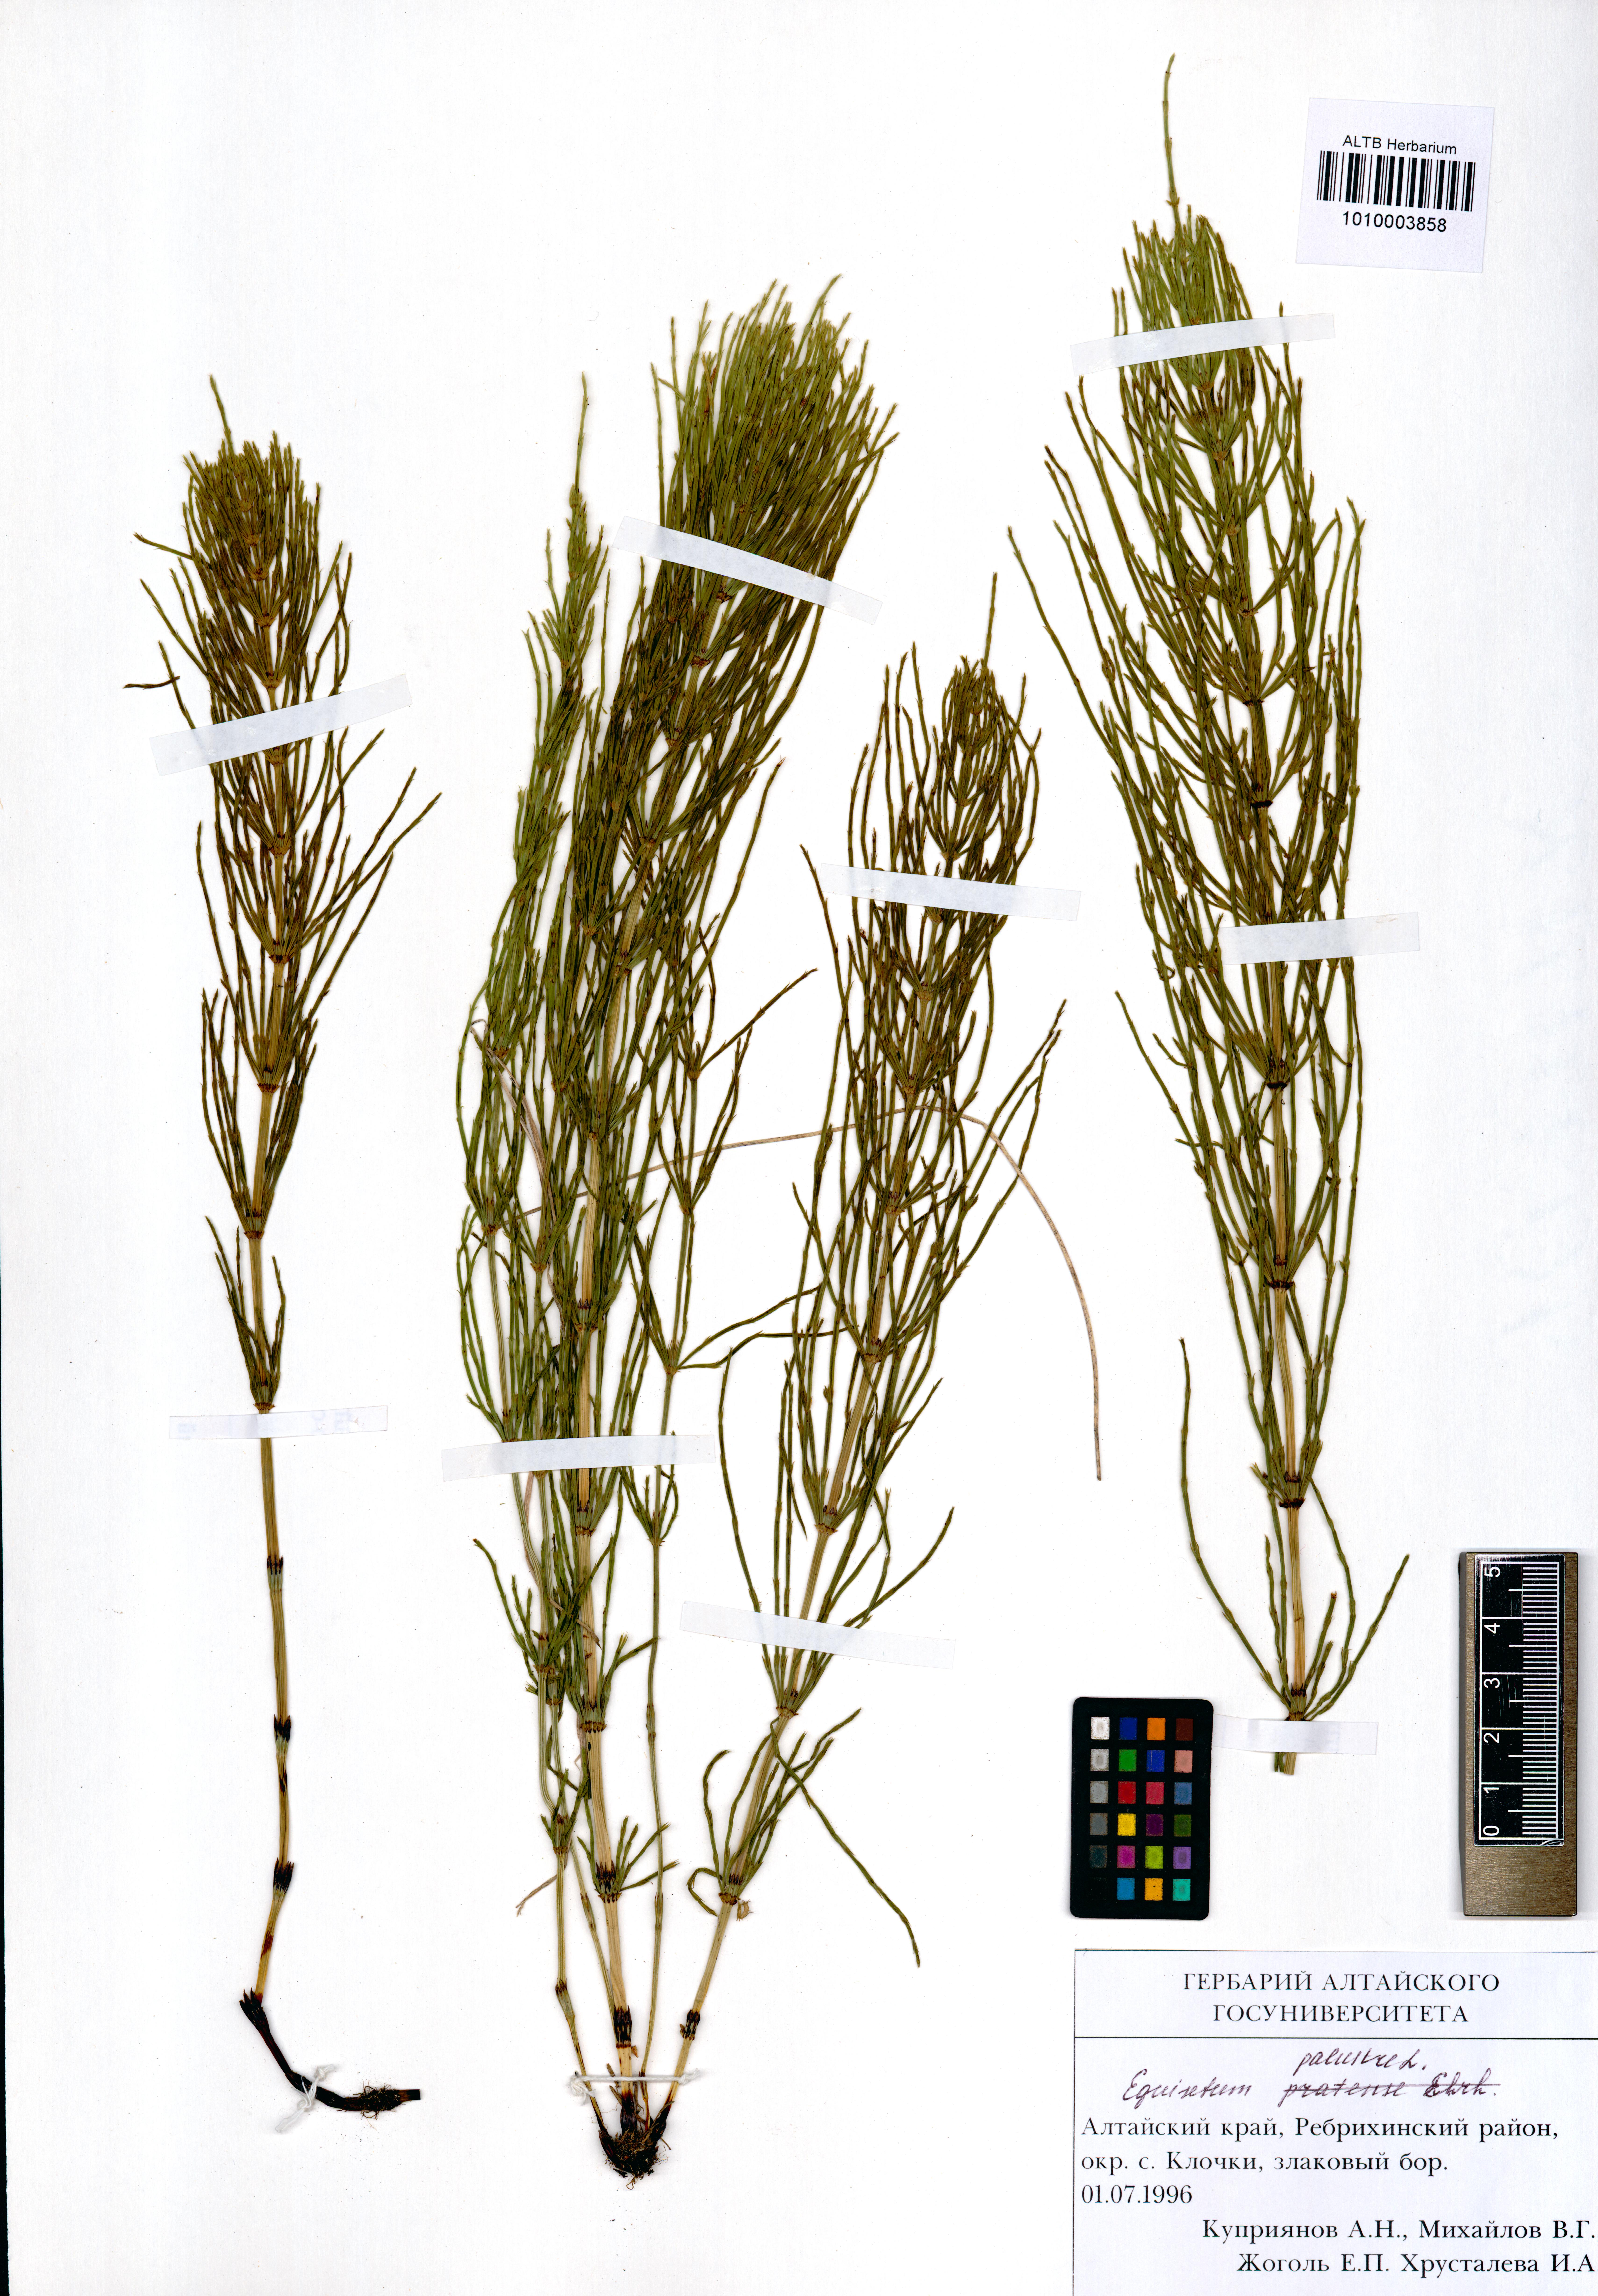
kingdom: Plantae
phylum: Tracheophyta
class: Polypodiopsida
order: Equisetales
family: Equisetaceae
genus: Equisetum
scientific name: Equisetum palustre
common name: Marsh horsetail
